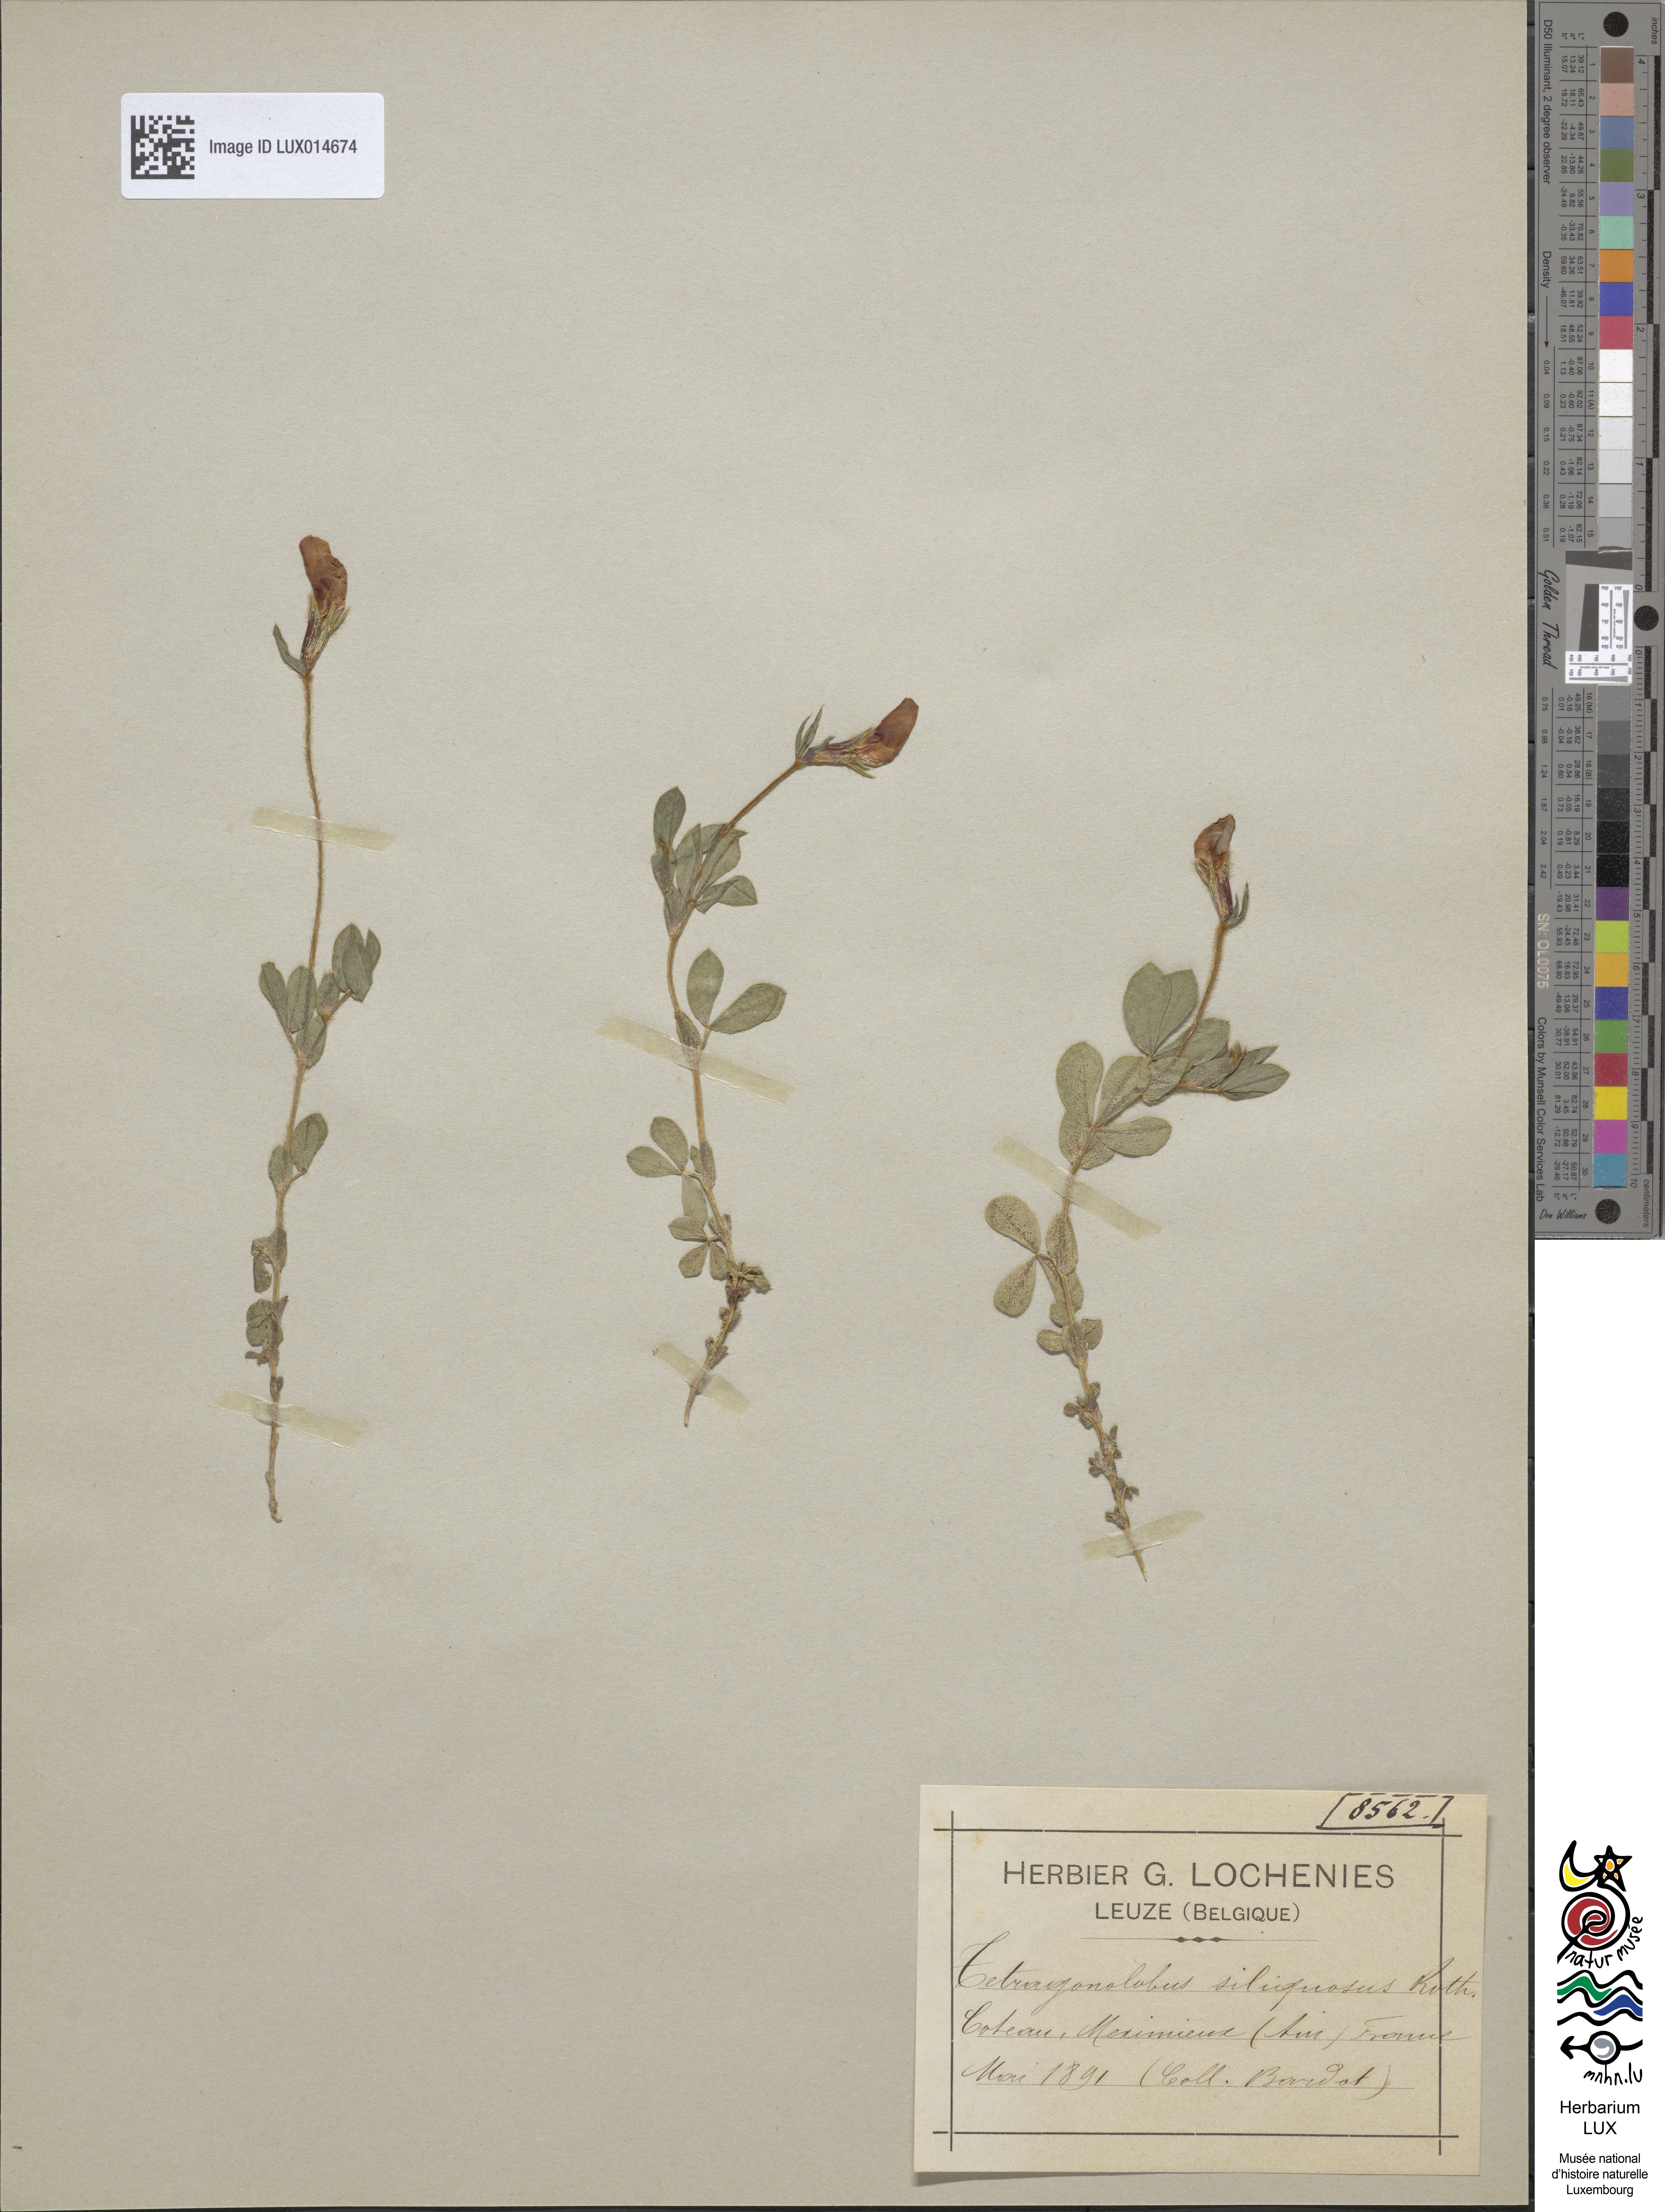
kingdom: Plantae
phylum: Tracheophyta
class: Magnoliopsida
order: Fabales
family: Fabaceae
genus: Lotus
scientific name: Lotus maritimus
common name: Dragon's-teeth
